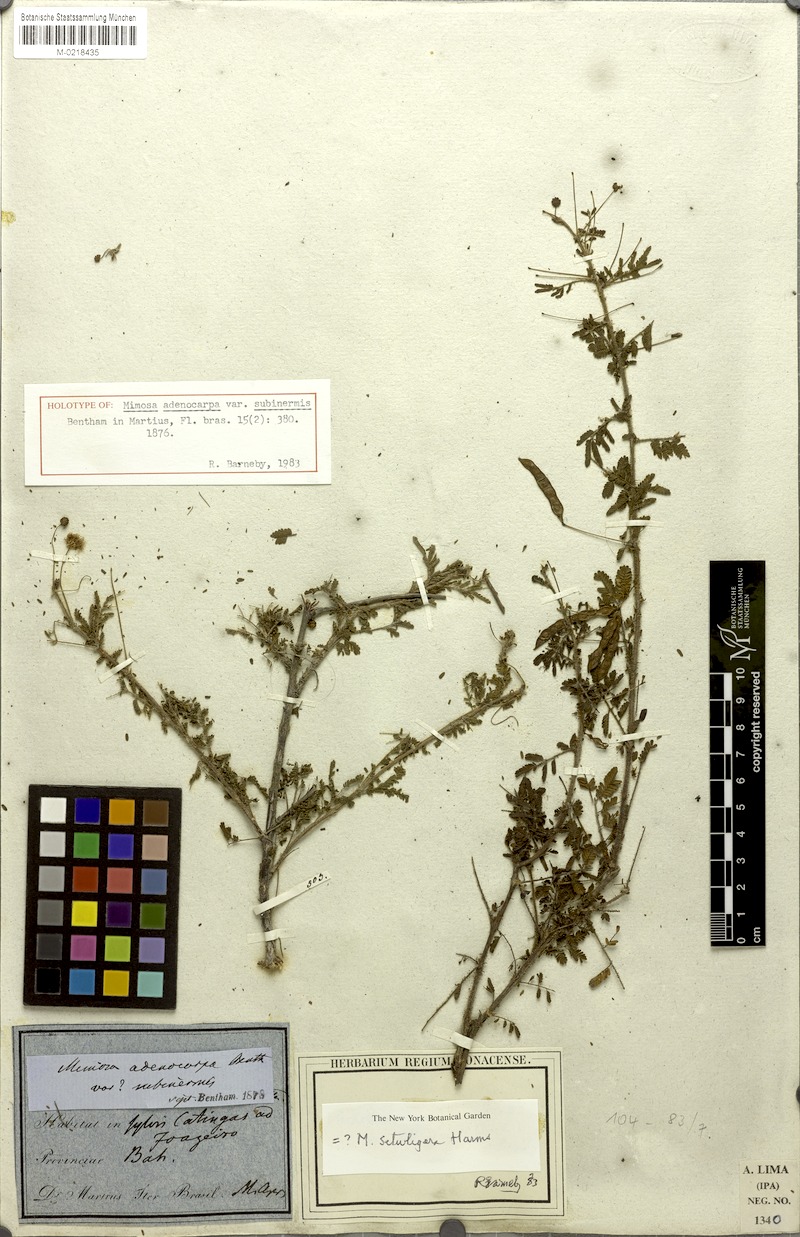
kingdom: Plantae
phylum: Tracheophyta
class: Magnoliopsida
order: Fabales
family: Fabaceae
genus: Mimosa
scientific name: Mimosa misera
